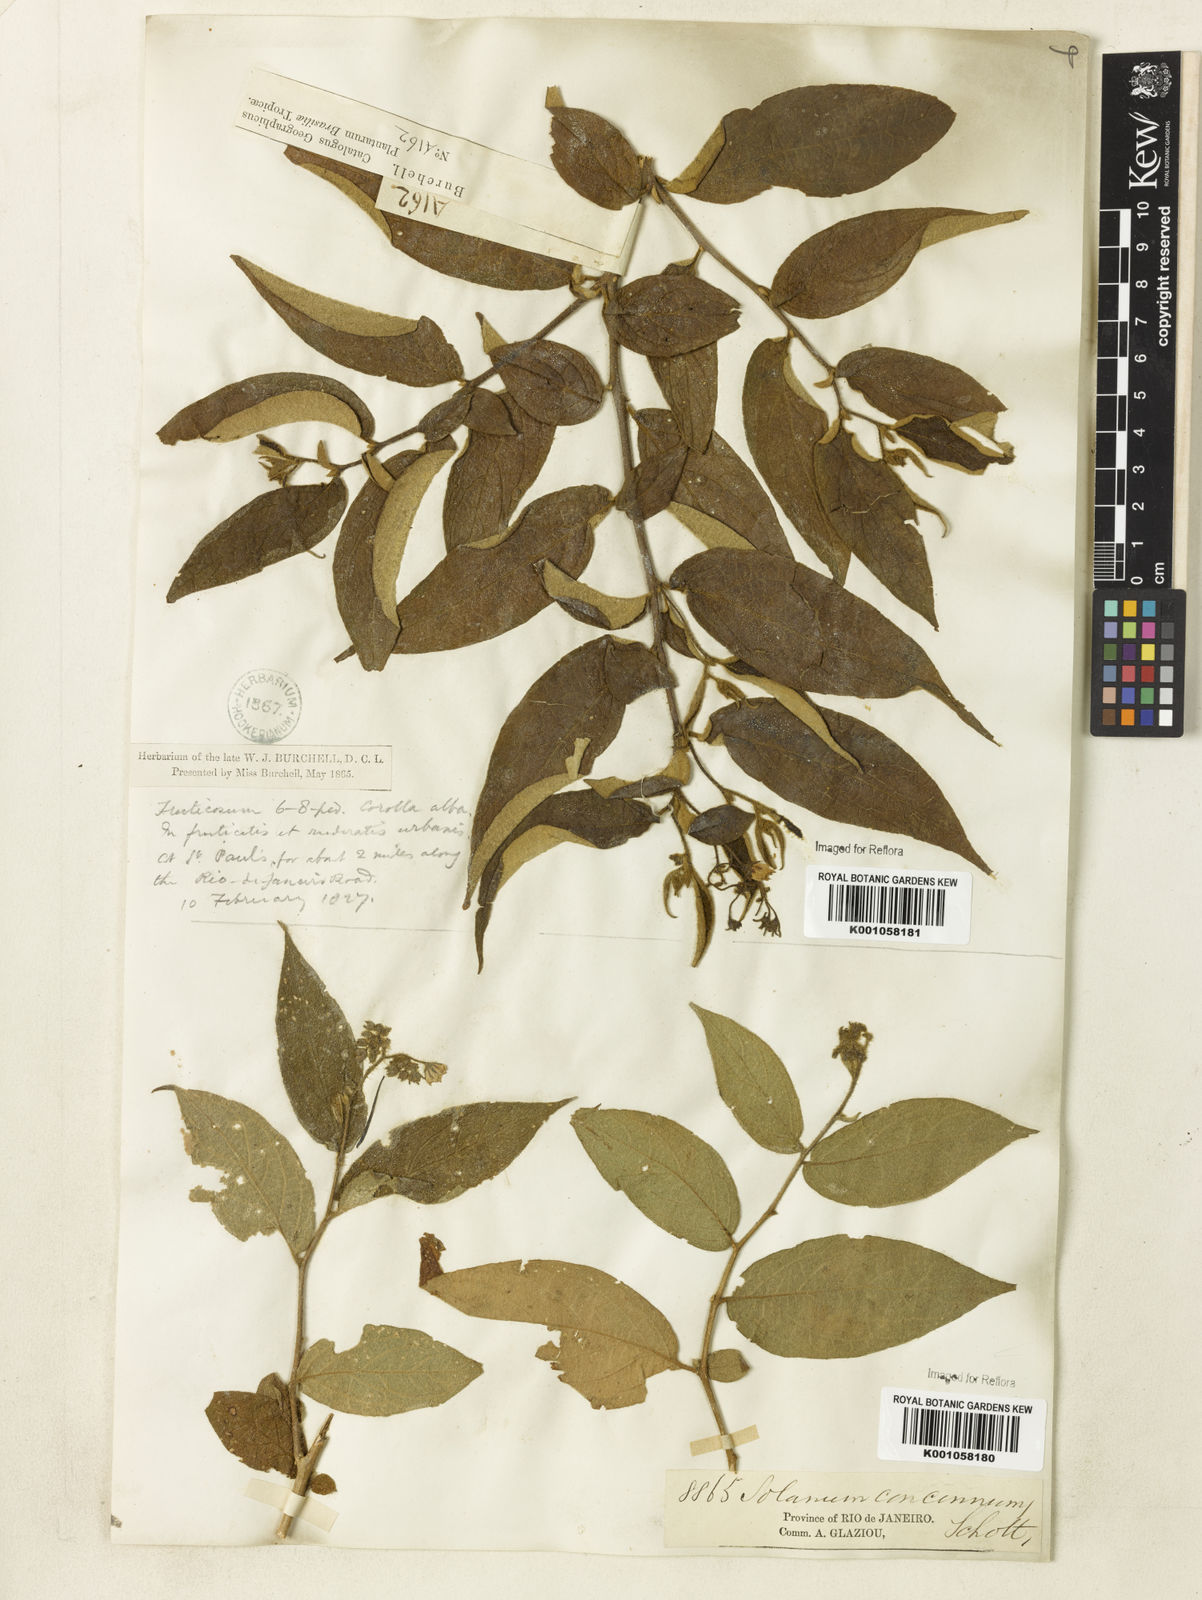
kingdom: Plantae
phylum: Tracheophyta
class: Magnoliopsida
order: Solanales
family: Solanaceae
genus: Solanum
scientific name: Solanum concinnum
